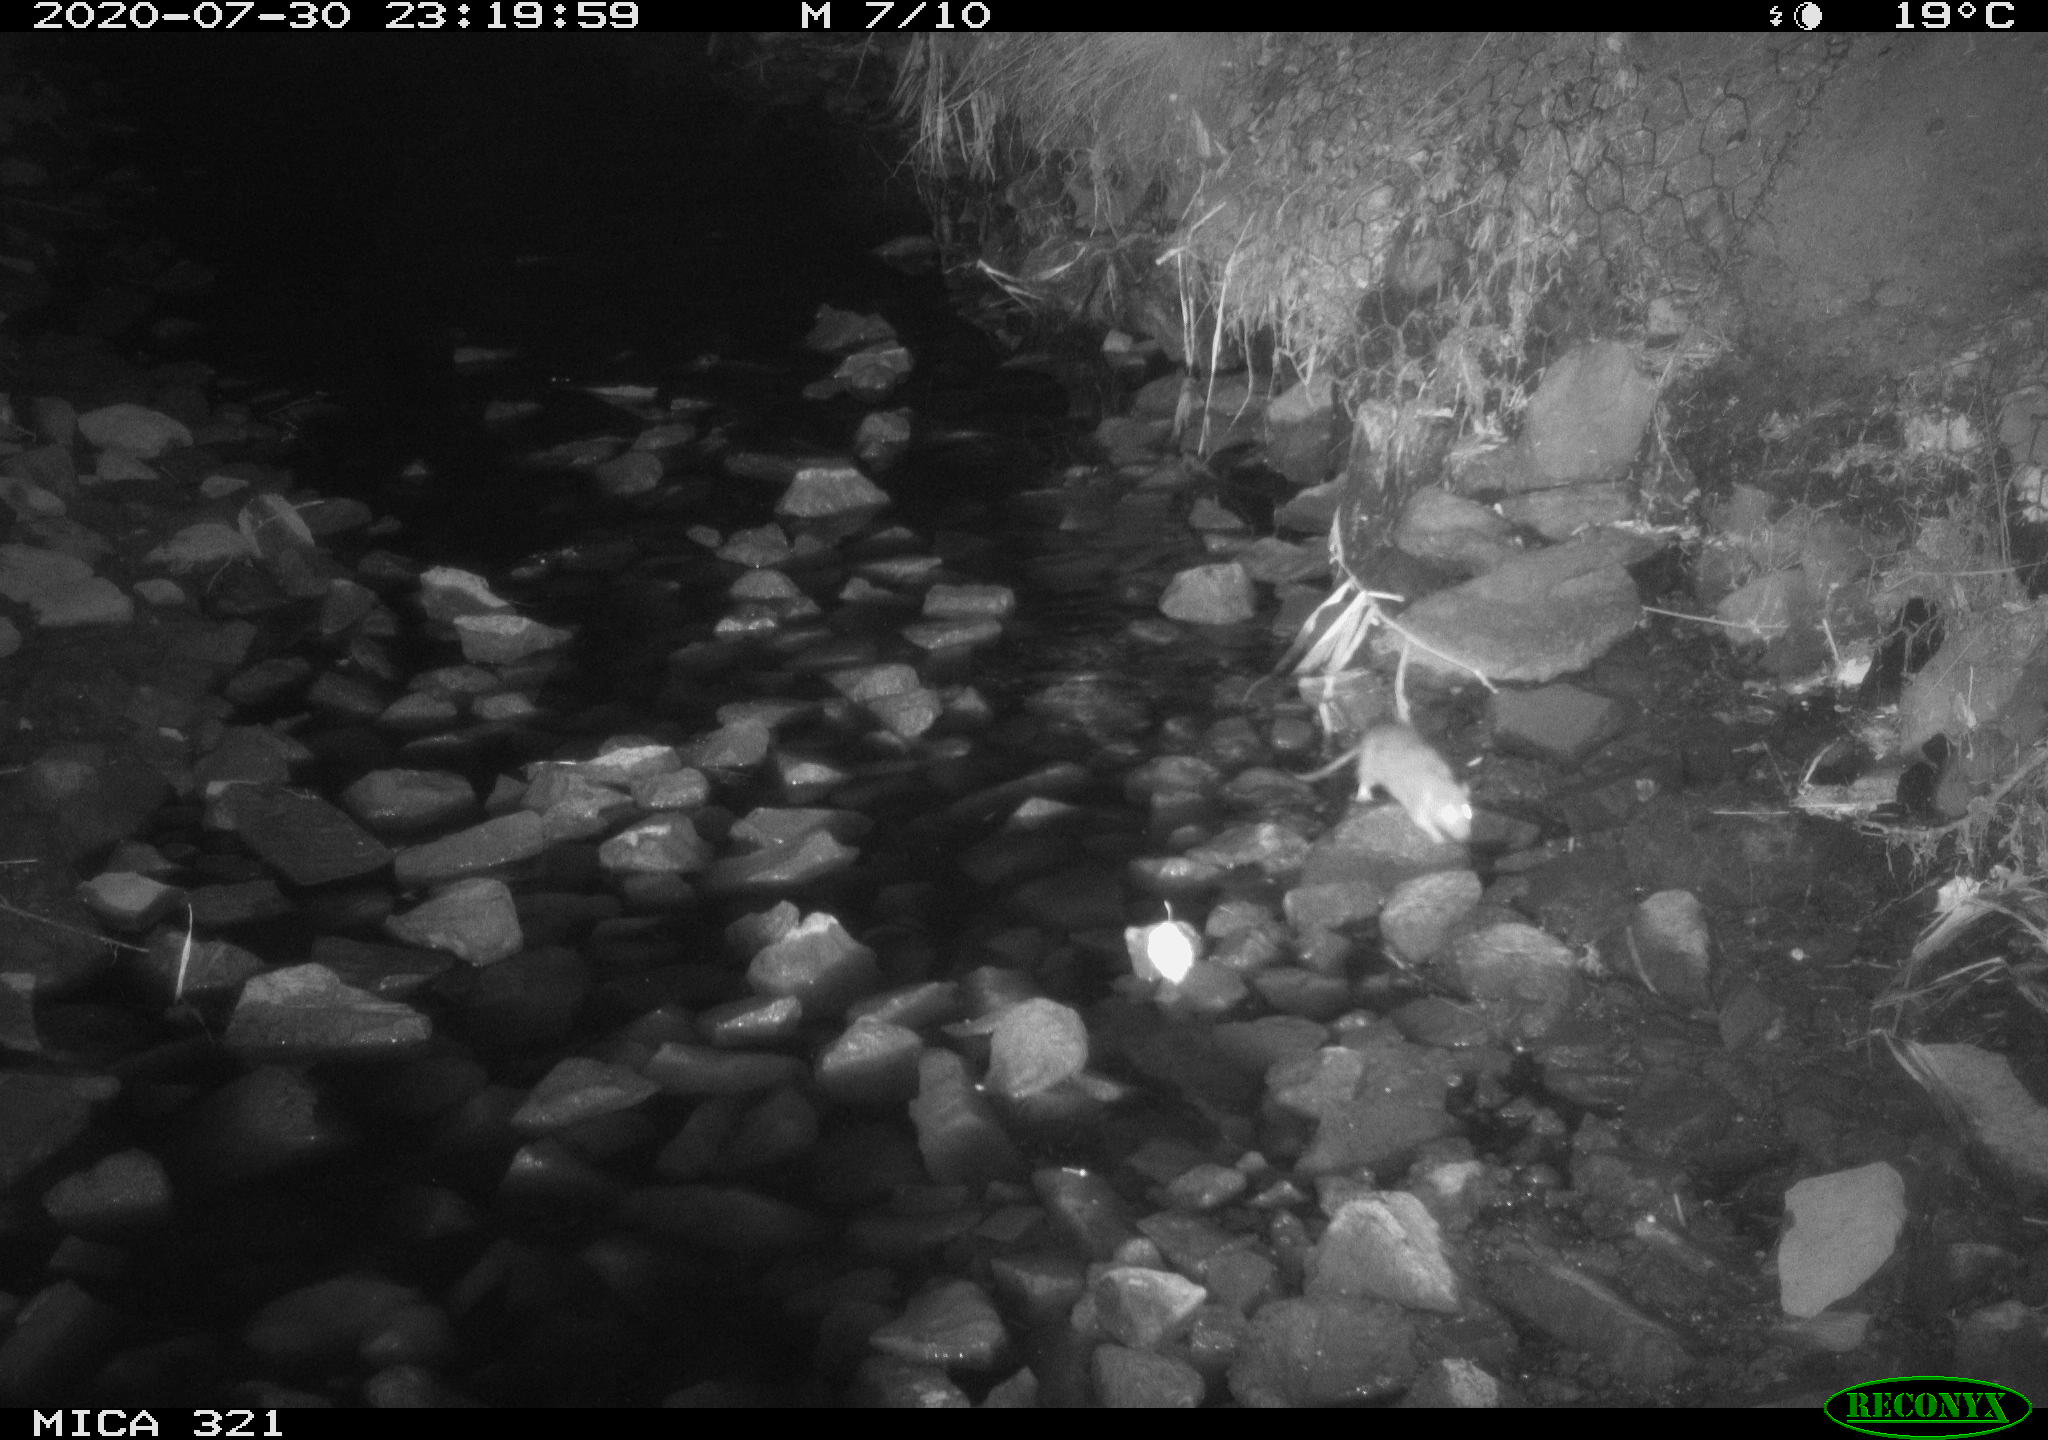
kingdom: Animalia
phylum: Chordata
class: Mammalia
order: Rodentia
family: Muridae
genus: Rattus
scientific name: Rattus norvegicus
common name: Brown rat
